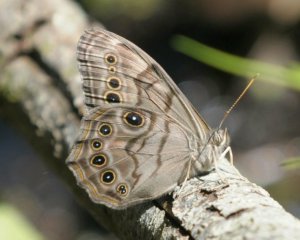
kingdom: Animalia
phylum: Arthropoda
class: Insecta
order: Lepidoptera
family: Nymphalidae
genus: Lethe
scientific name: Lethe anthedon
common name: Northern Pearly-Eye
